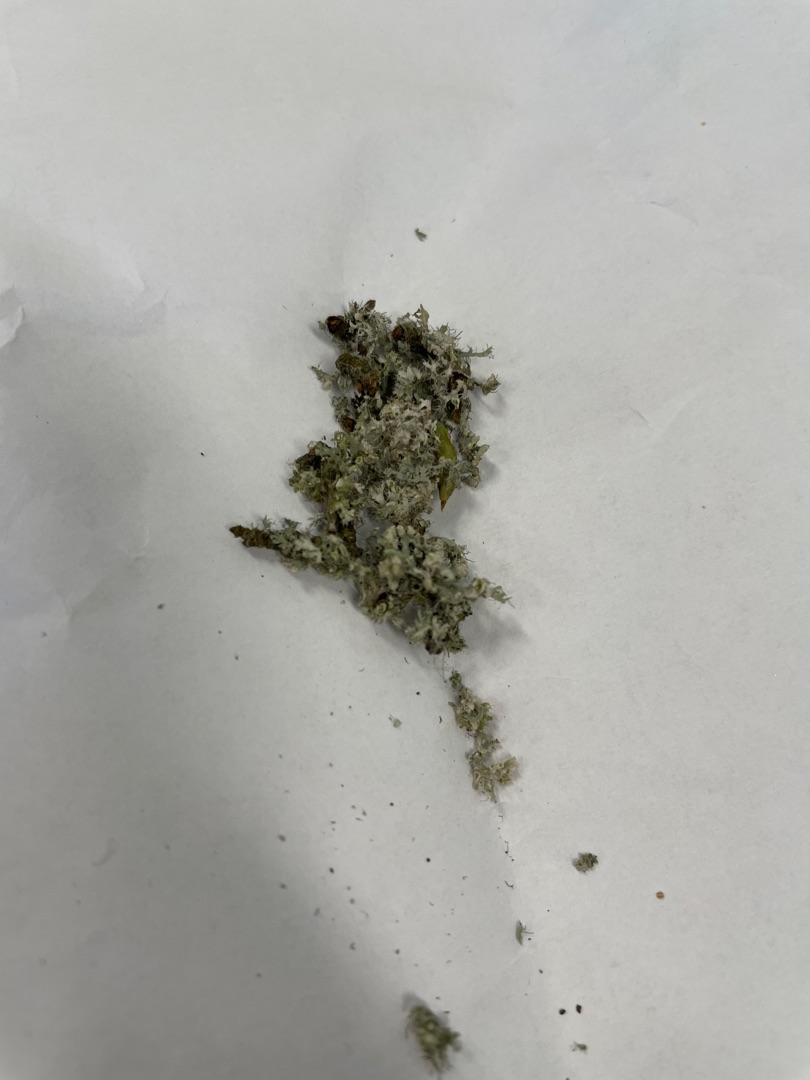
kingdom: Fungi
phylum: Ascomycota
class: Lecanoromycetes
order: Caliciales
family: Physciaceae
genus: Physcia
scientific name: Physcia
